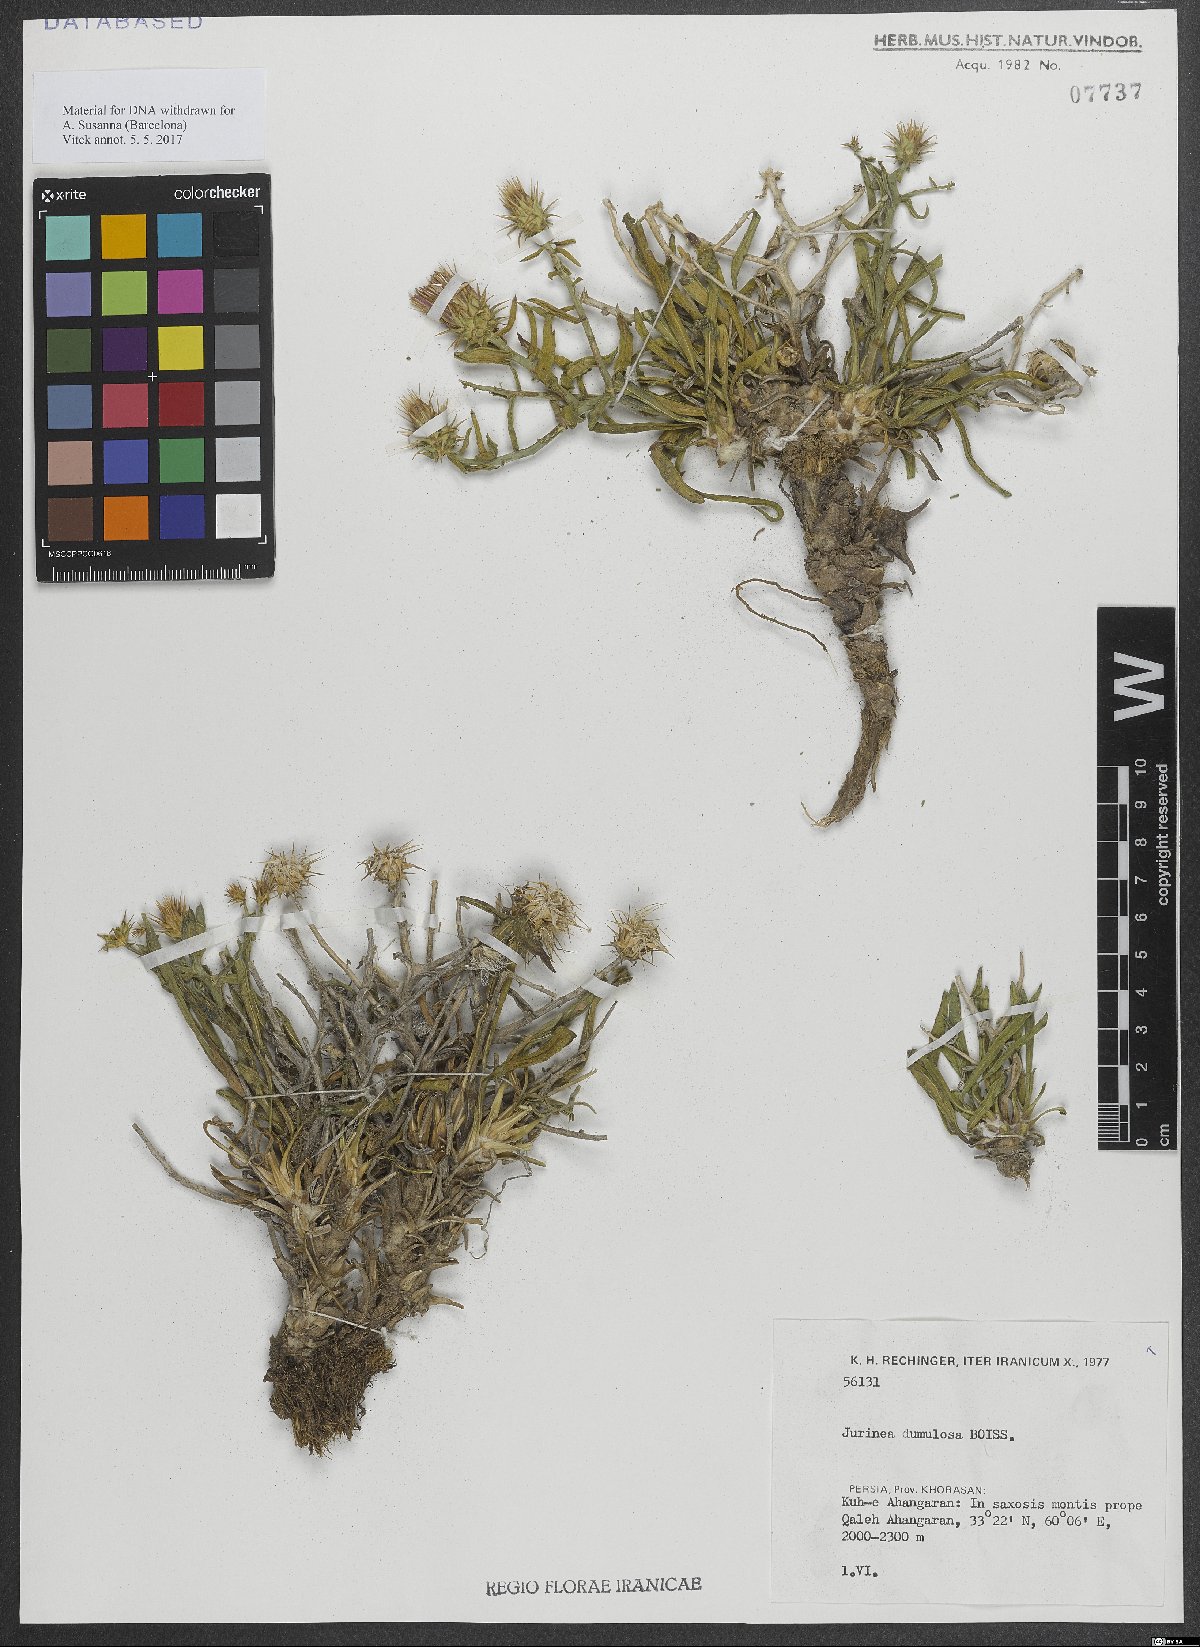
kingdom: Plantae
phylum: Tracheophyta
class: Magnoliopsida
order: Asterales
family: Asteraceae
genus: Jurinea
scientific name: Jurinea dumulosa
